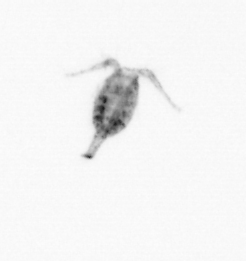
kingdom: Animalia
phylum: Arthropoda
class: Copepoda
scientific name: Copepoda
